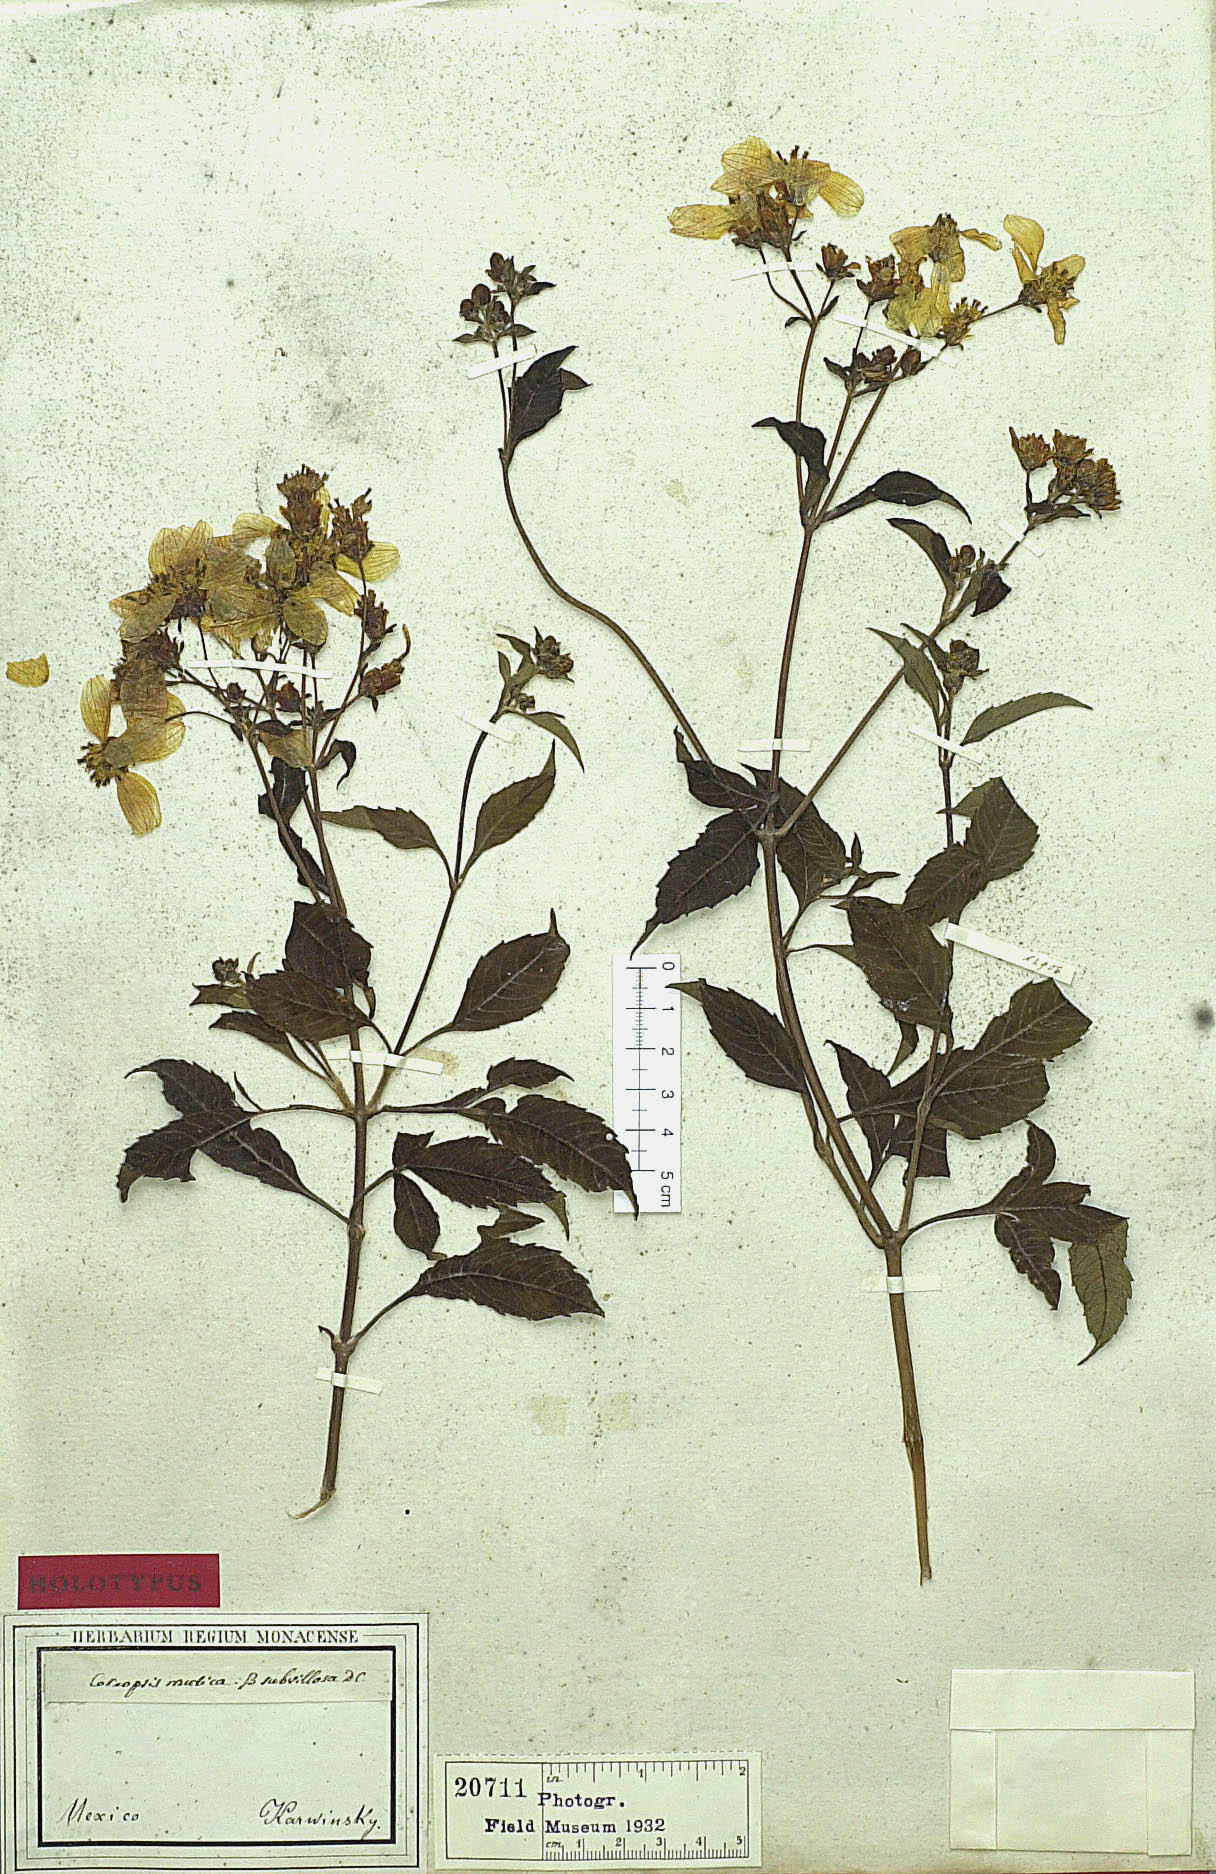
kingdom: Plantae
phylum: Tracheophyta
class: Magnoliopsida
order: Asterales
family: Asteraceae
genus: Electranthera
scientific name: Electranthera mutica
